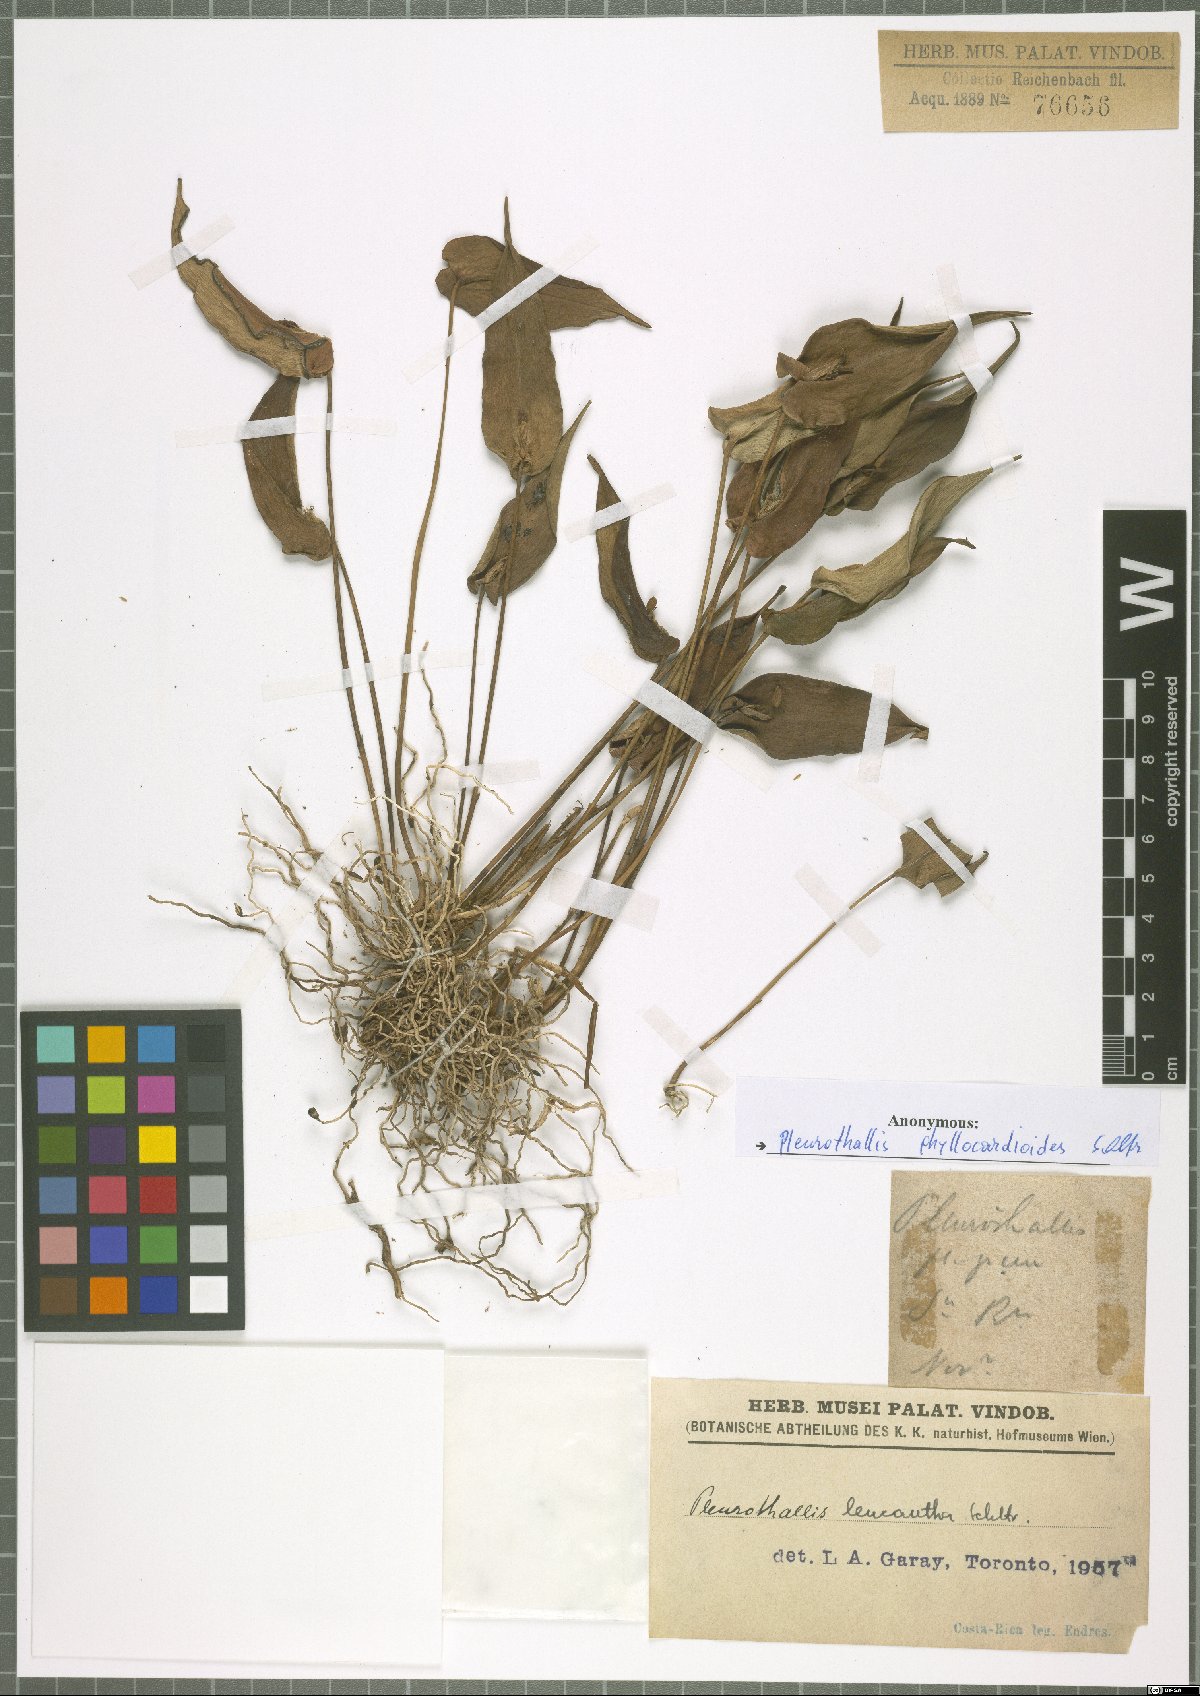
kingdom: Plantae
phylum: Tracheophyta
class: Liliopsida
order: Asparagales
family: Orchidaceae
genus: Pleurothallis
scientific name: Pleurothallis phyllocardioides
